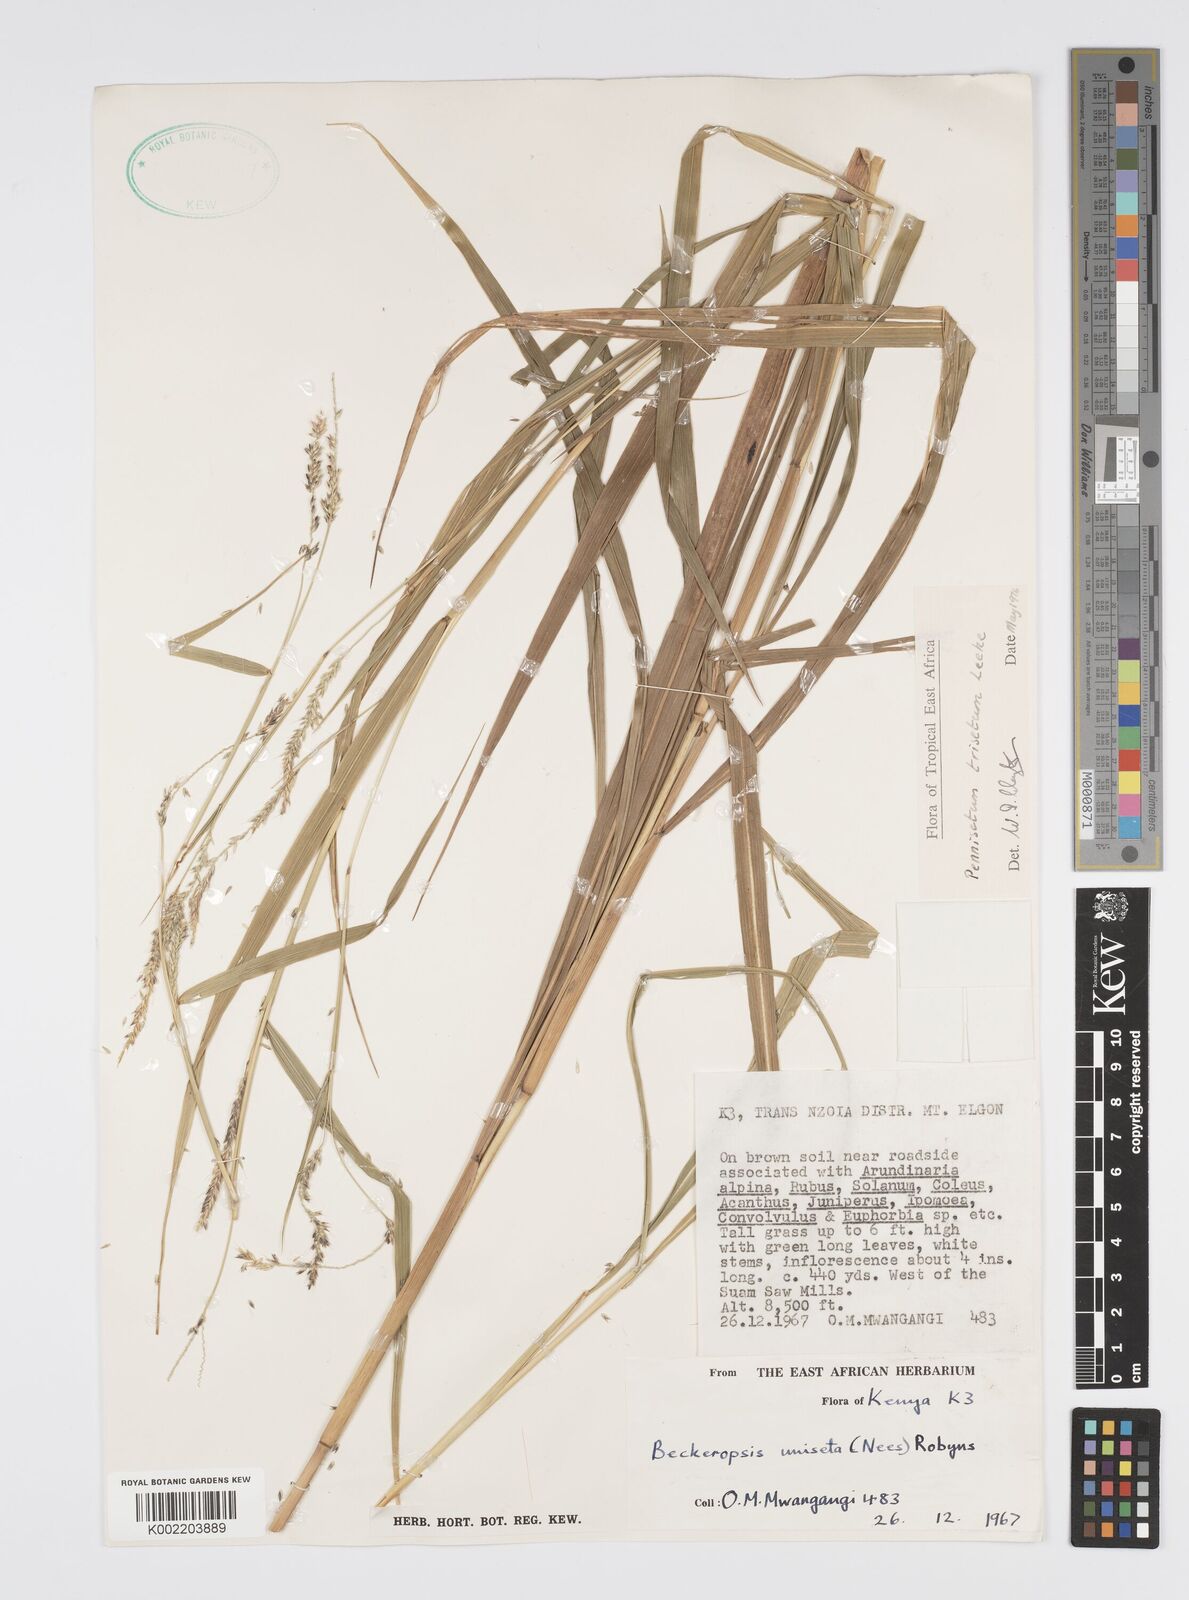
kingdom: Plantae
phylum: Tracheophyta
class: Liliopsida
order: Poales
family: Poaceae
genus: Cenchrus
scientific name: Cenchrus trisetus
